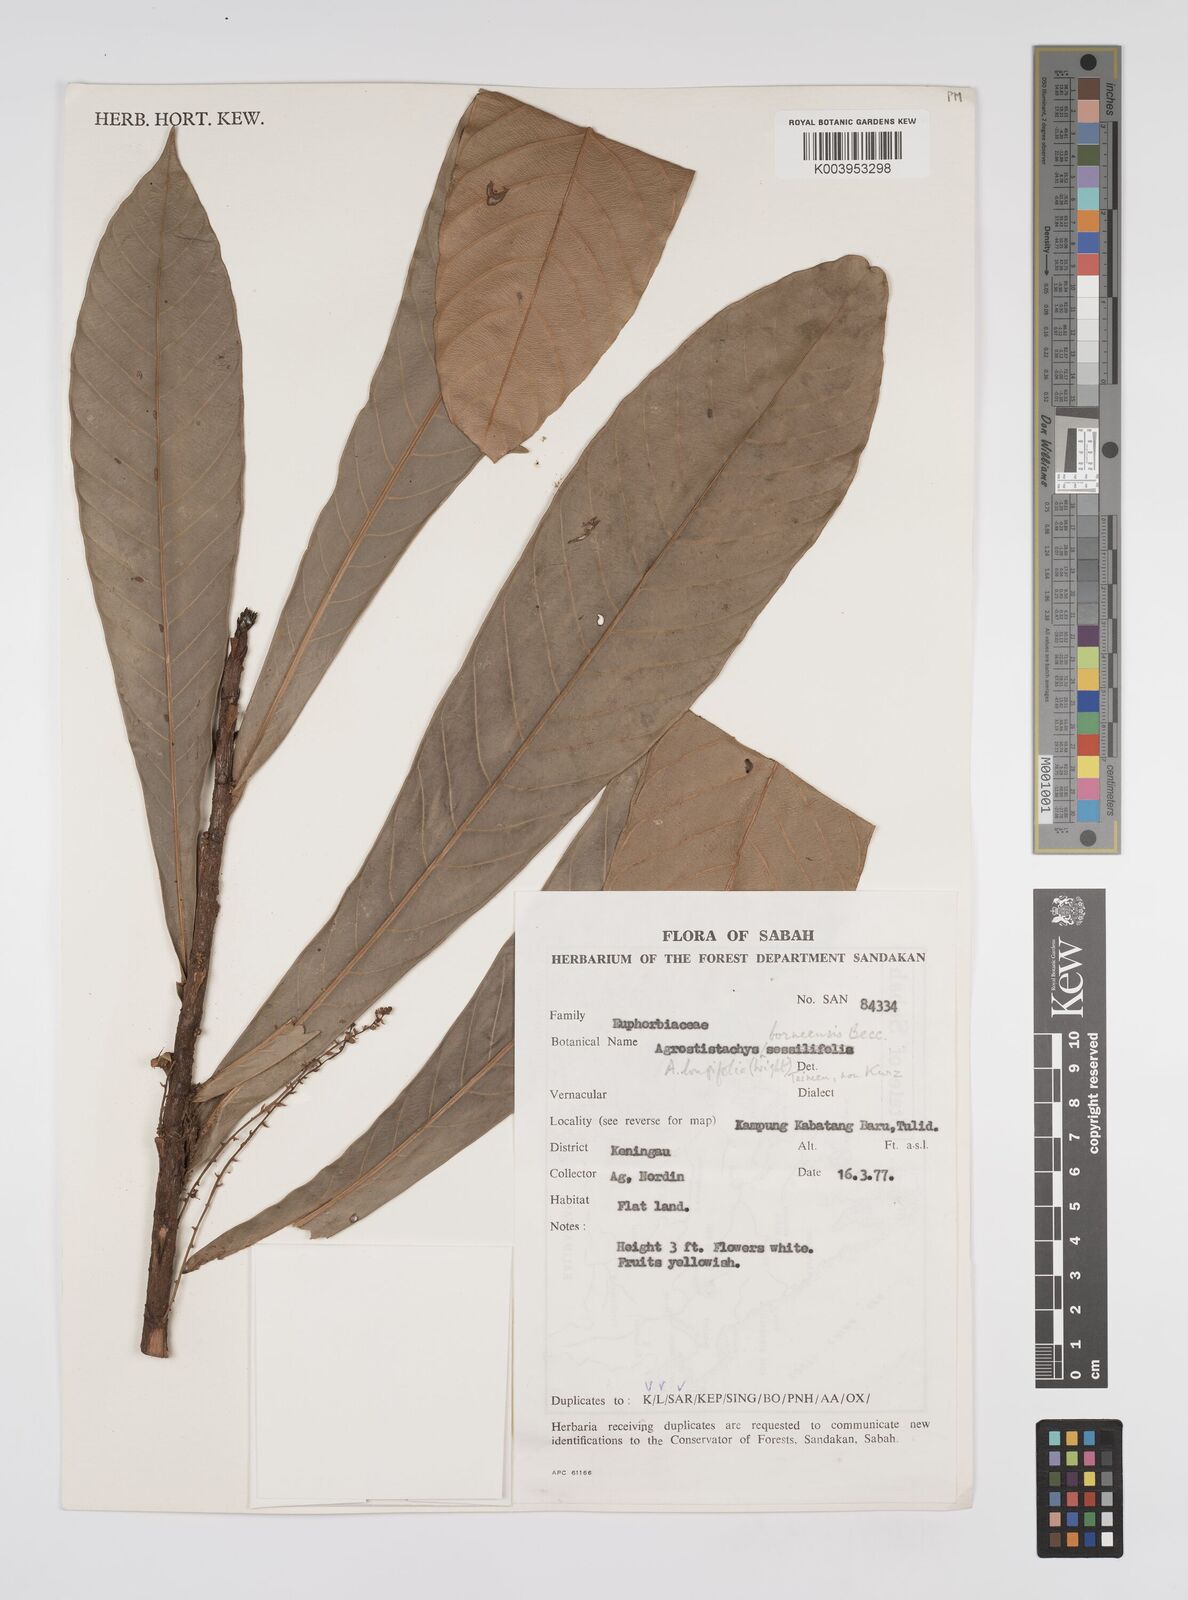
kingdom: Plantae
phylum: Tracheophyta
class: Magnoliopsida
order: Malpighiales
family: Euphorbiaceae
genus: Agrostistachys
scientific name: Agrostistachys
